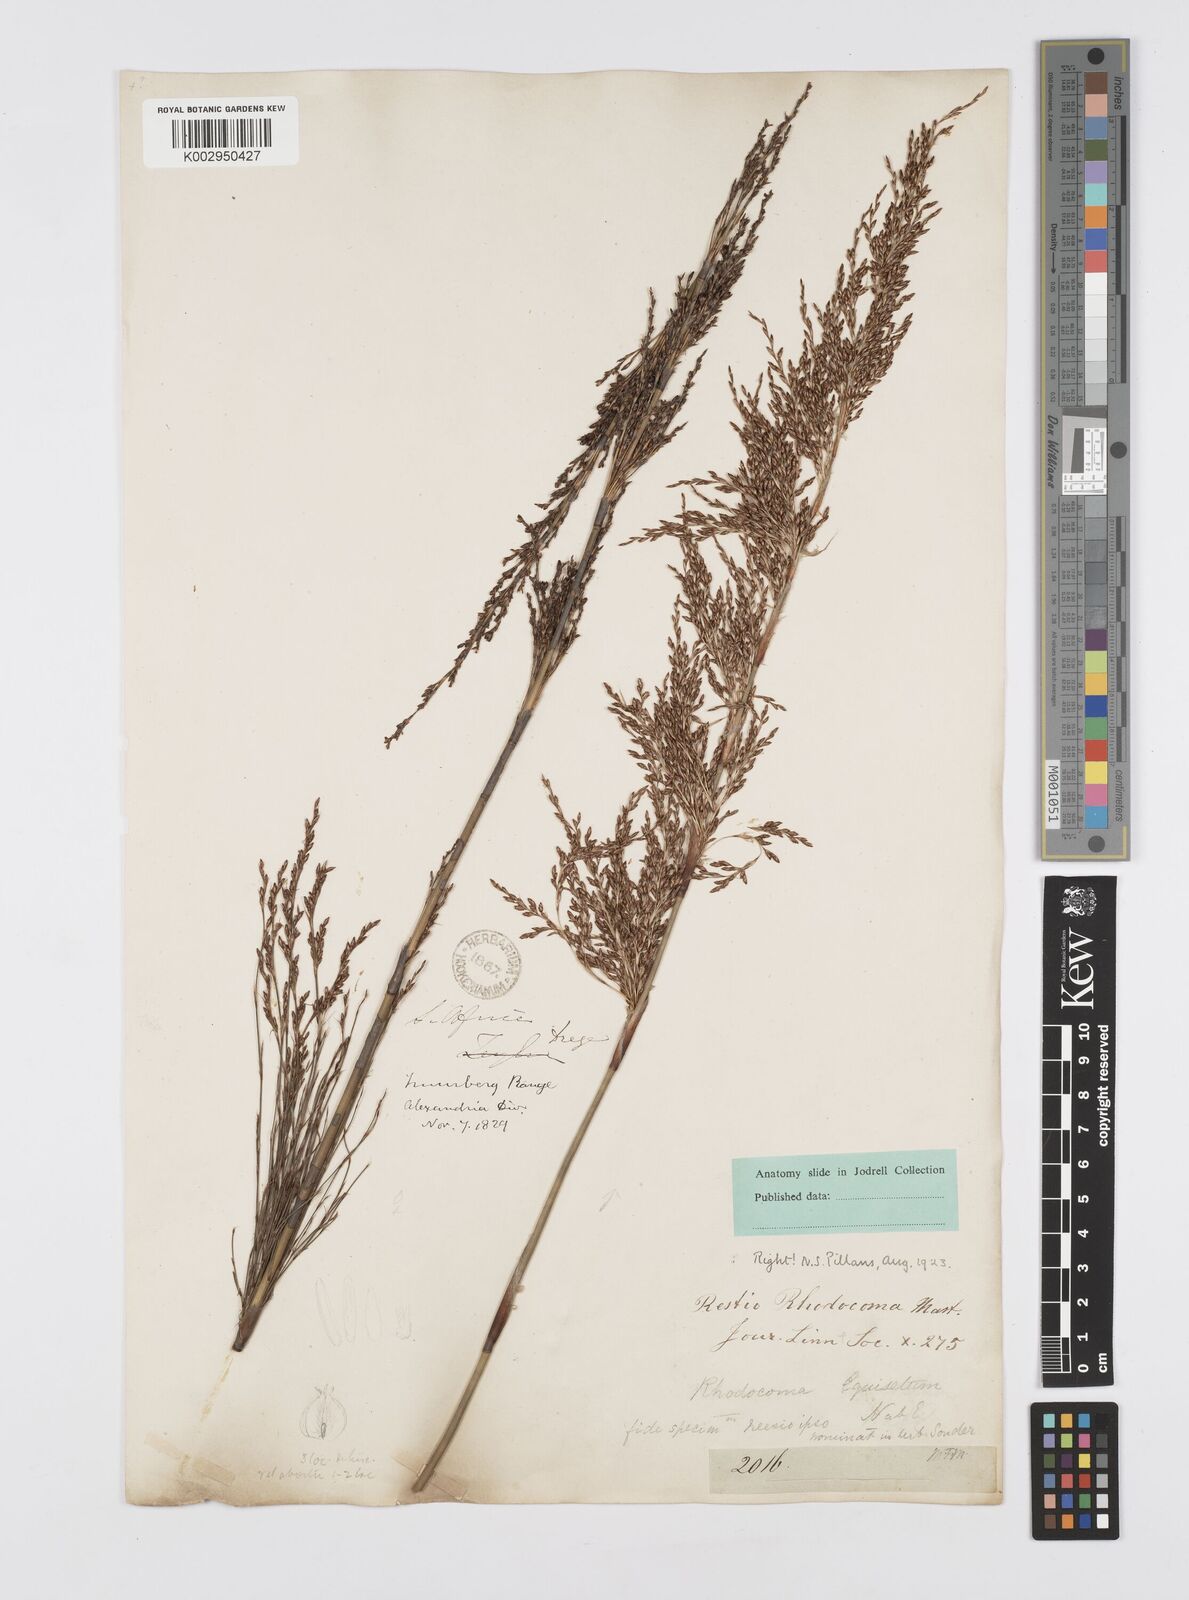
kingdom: Plantae
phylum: Tracheophyta
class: Liliopsida
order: Poales
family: Restionaceae
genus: Rhodocoma
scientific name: Rhodocoma capensis
